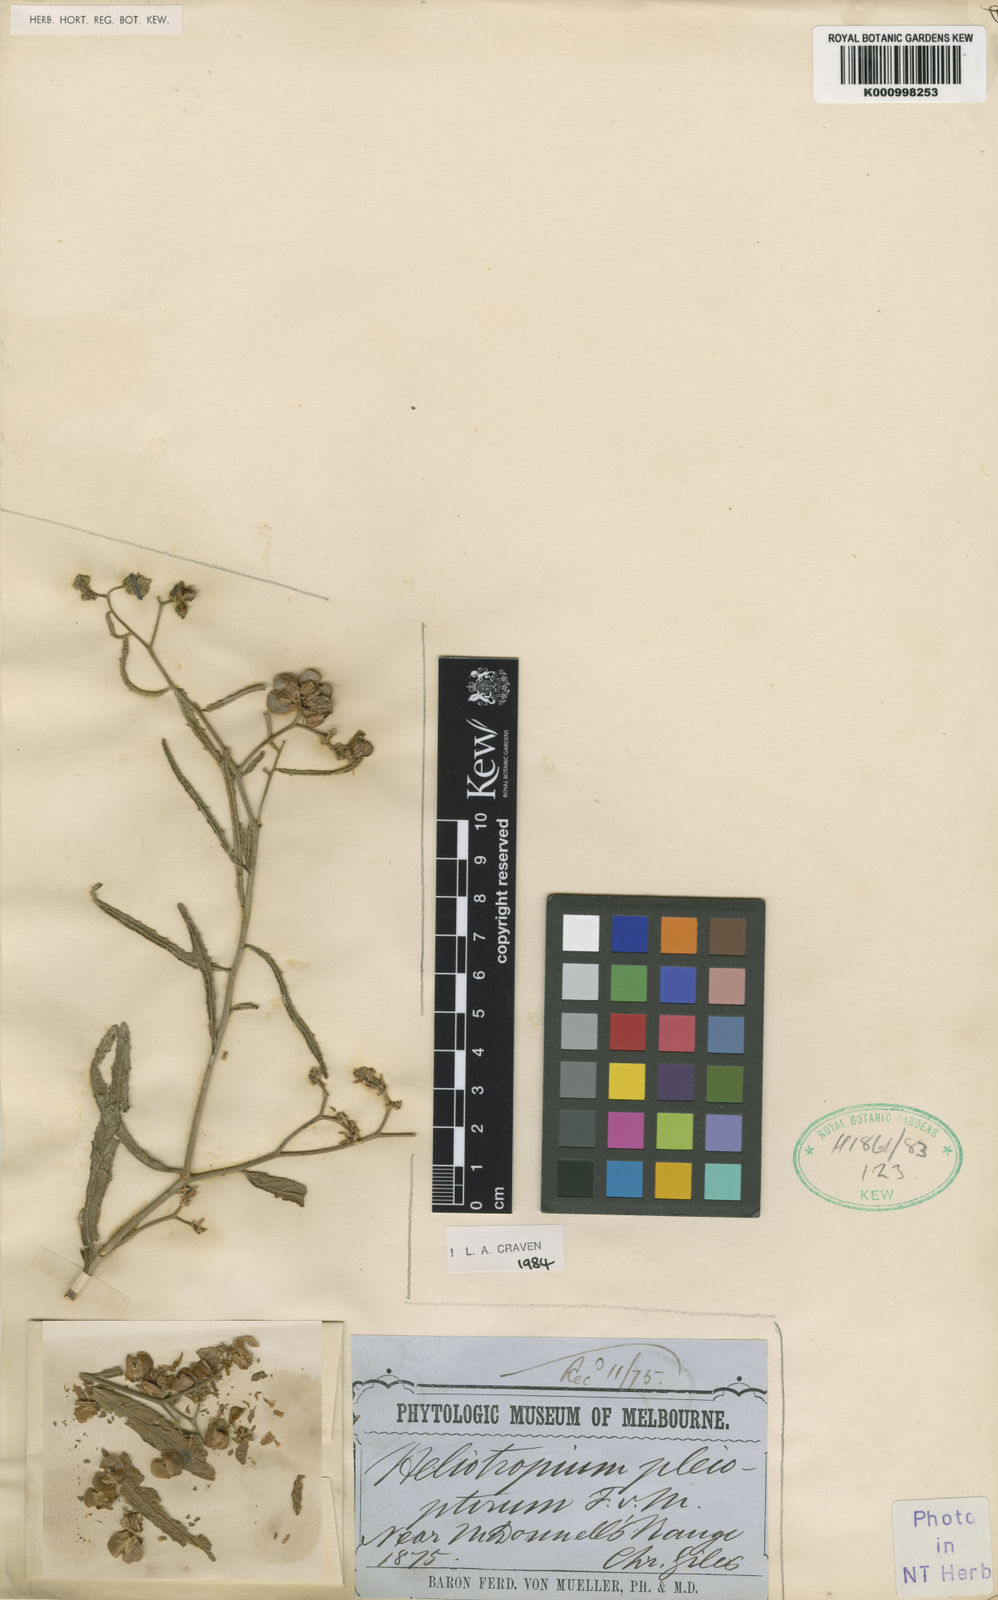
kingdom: Plantae
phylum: Tracheophyta
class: Magnoliopsida
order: Boraginales
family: Heliotropiaceae
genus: Heliotropium
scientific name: Heliotropium pleiopterum
